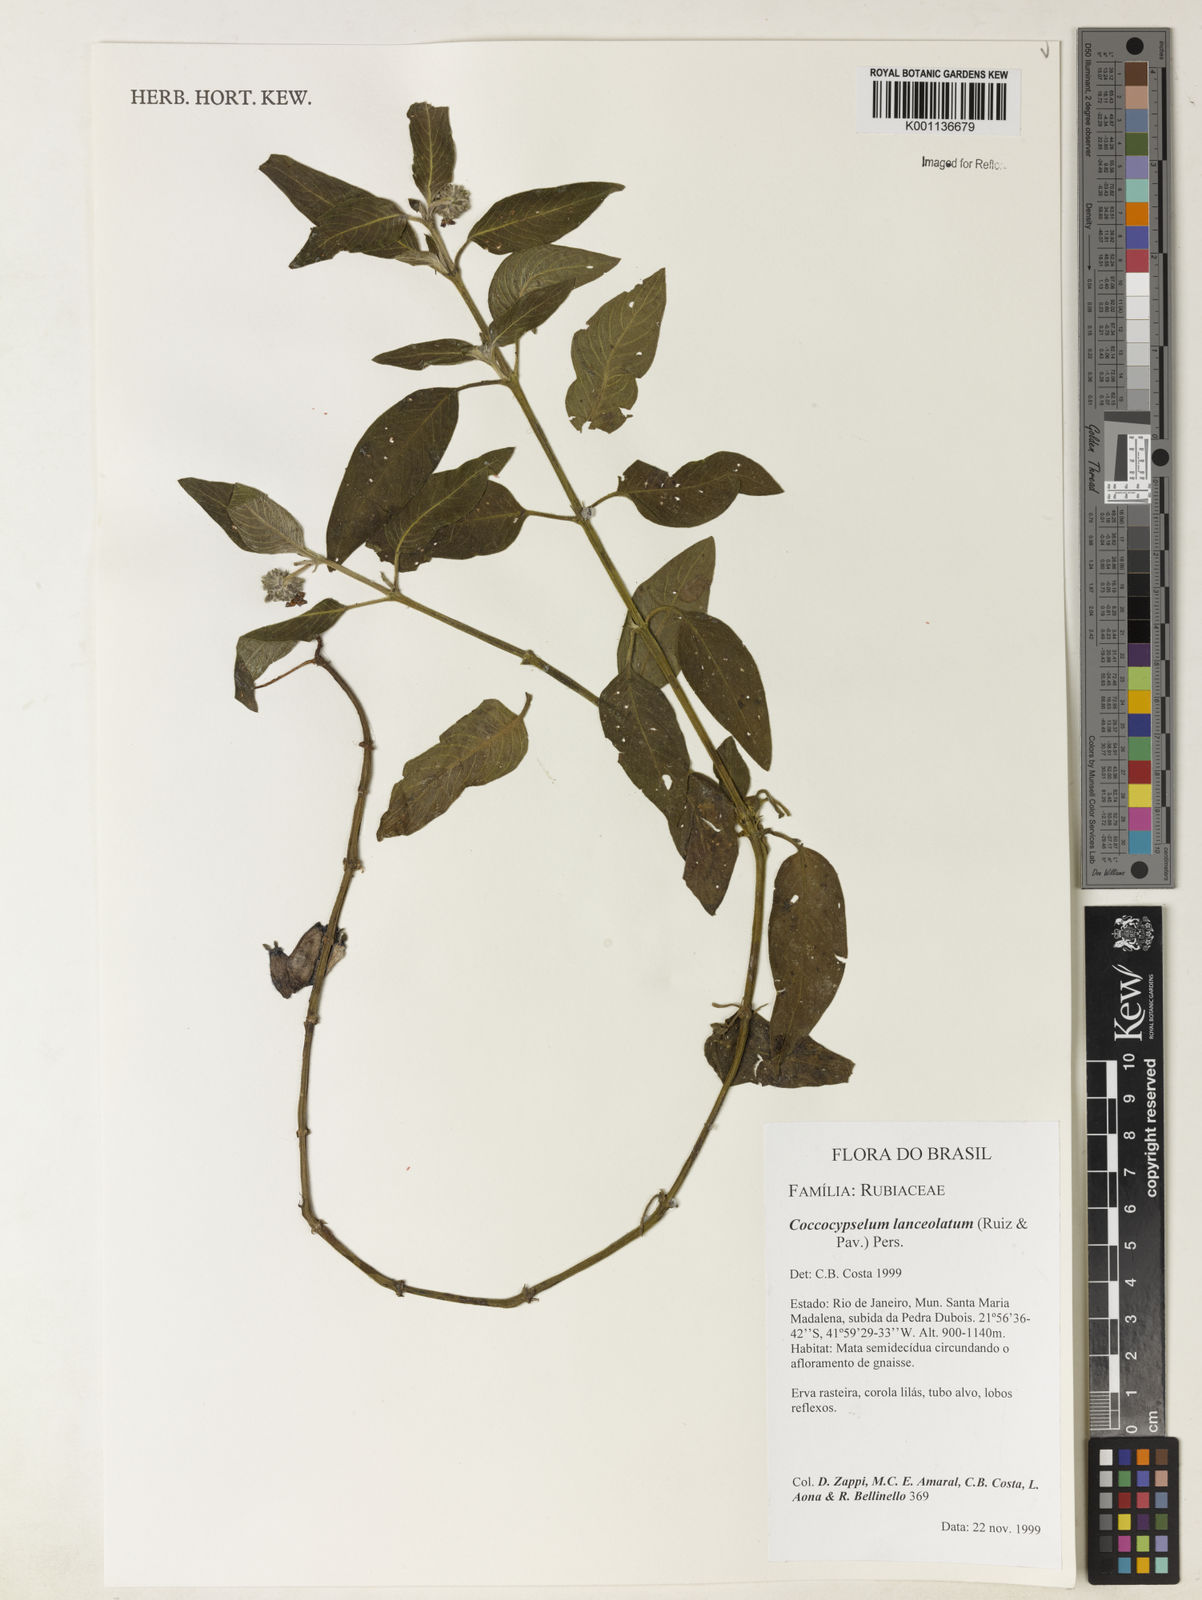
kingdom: Plantae
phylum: Tracheophyta
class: Magnoliopsida
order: Gentianales
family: Rubiaceae
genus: Coccocypselum
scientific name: Coccocypselum lanceolatum
